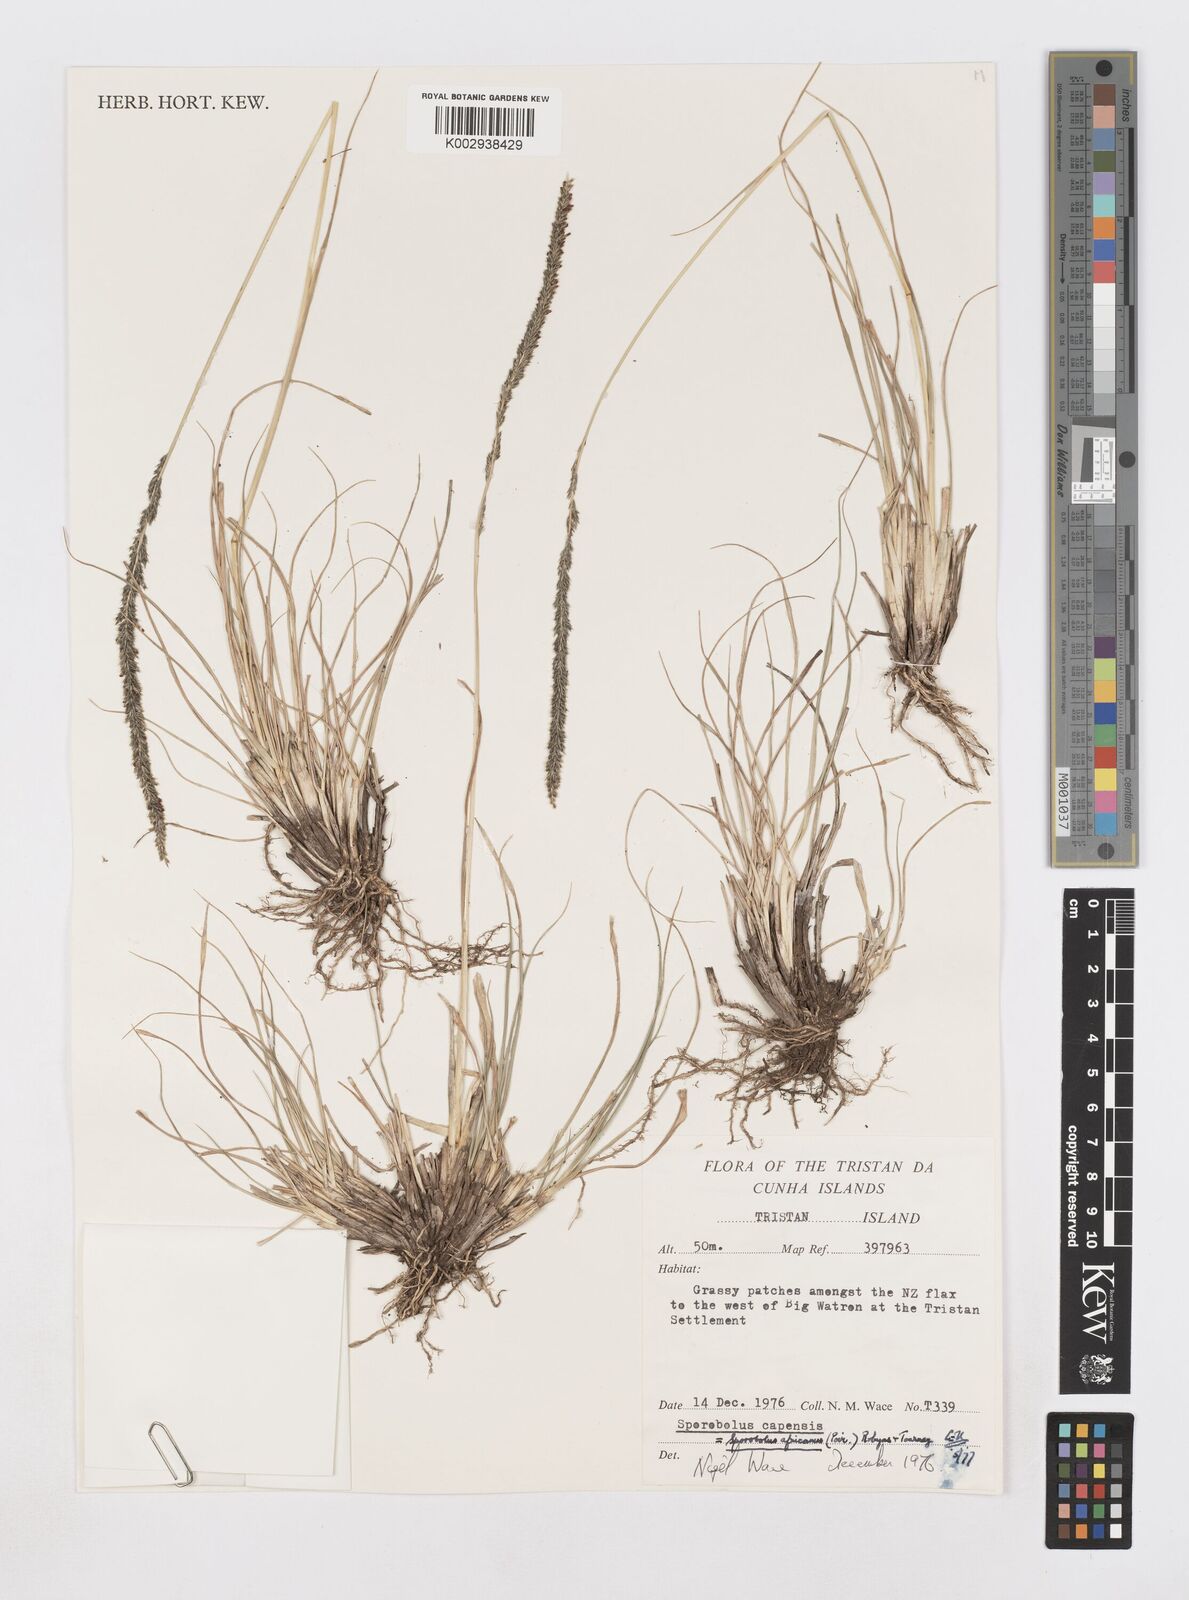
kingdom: Plantae
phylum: Tracheophyta
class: Liliopsida
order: Poales
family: Poaceae
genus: Sporobolus
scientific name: Sporobolus africanus
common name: African dropseed
